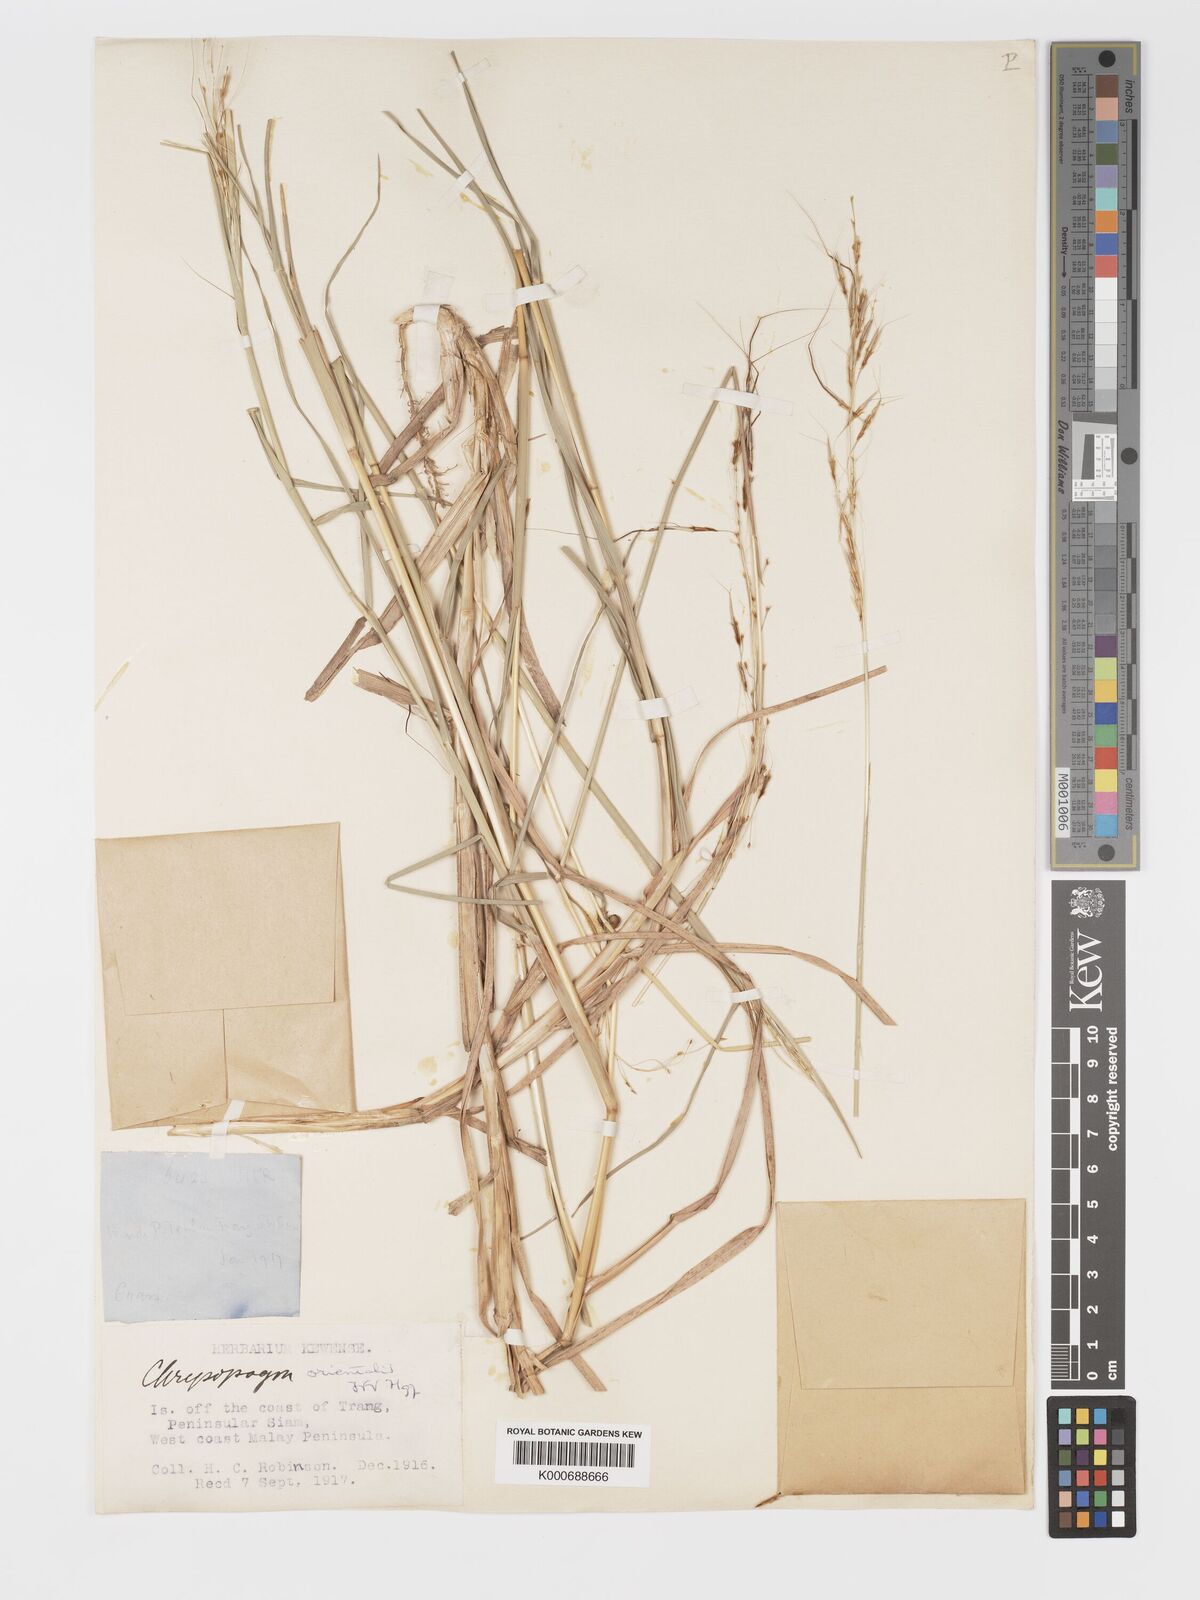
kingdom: Plantae
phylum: Tracheophyta
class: Liliopsida
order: Poales
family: Poaceae
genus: Chrysopogon
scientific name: Chrysopogon
